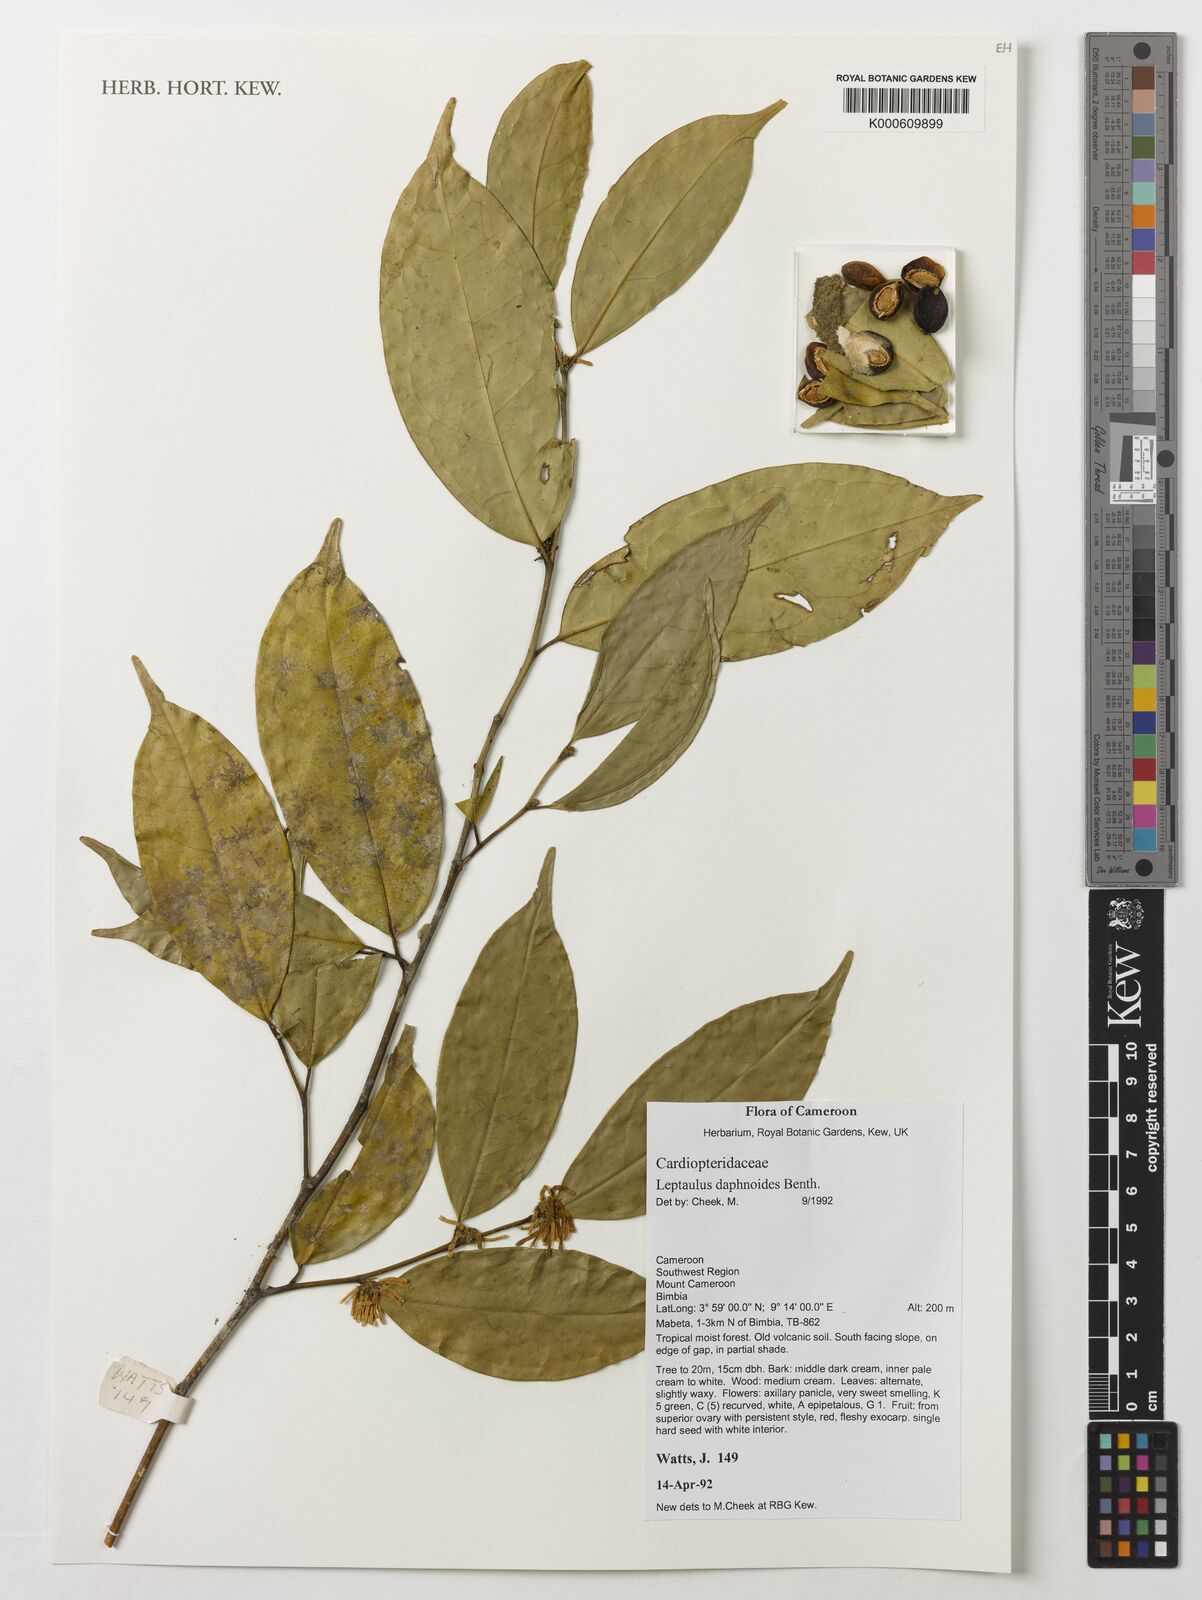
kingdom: Plantae
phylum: Tracheophyta
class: Magnoliopsida
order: Cardiopteridales
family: Cardiopteridaceae
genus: Leptaulus
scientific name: Leptaulus daphnoides
